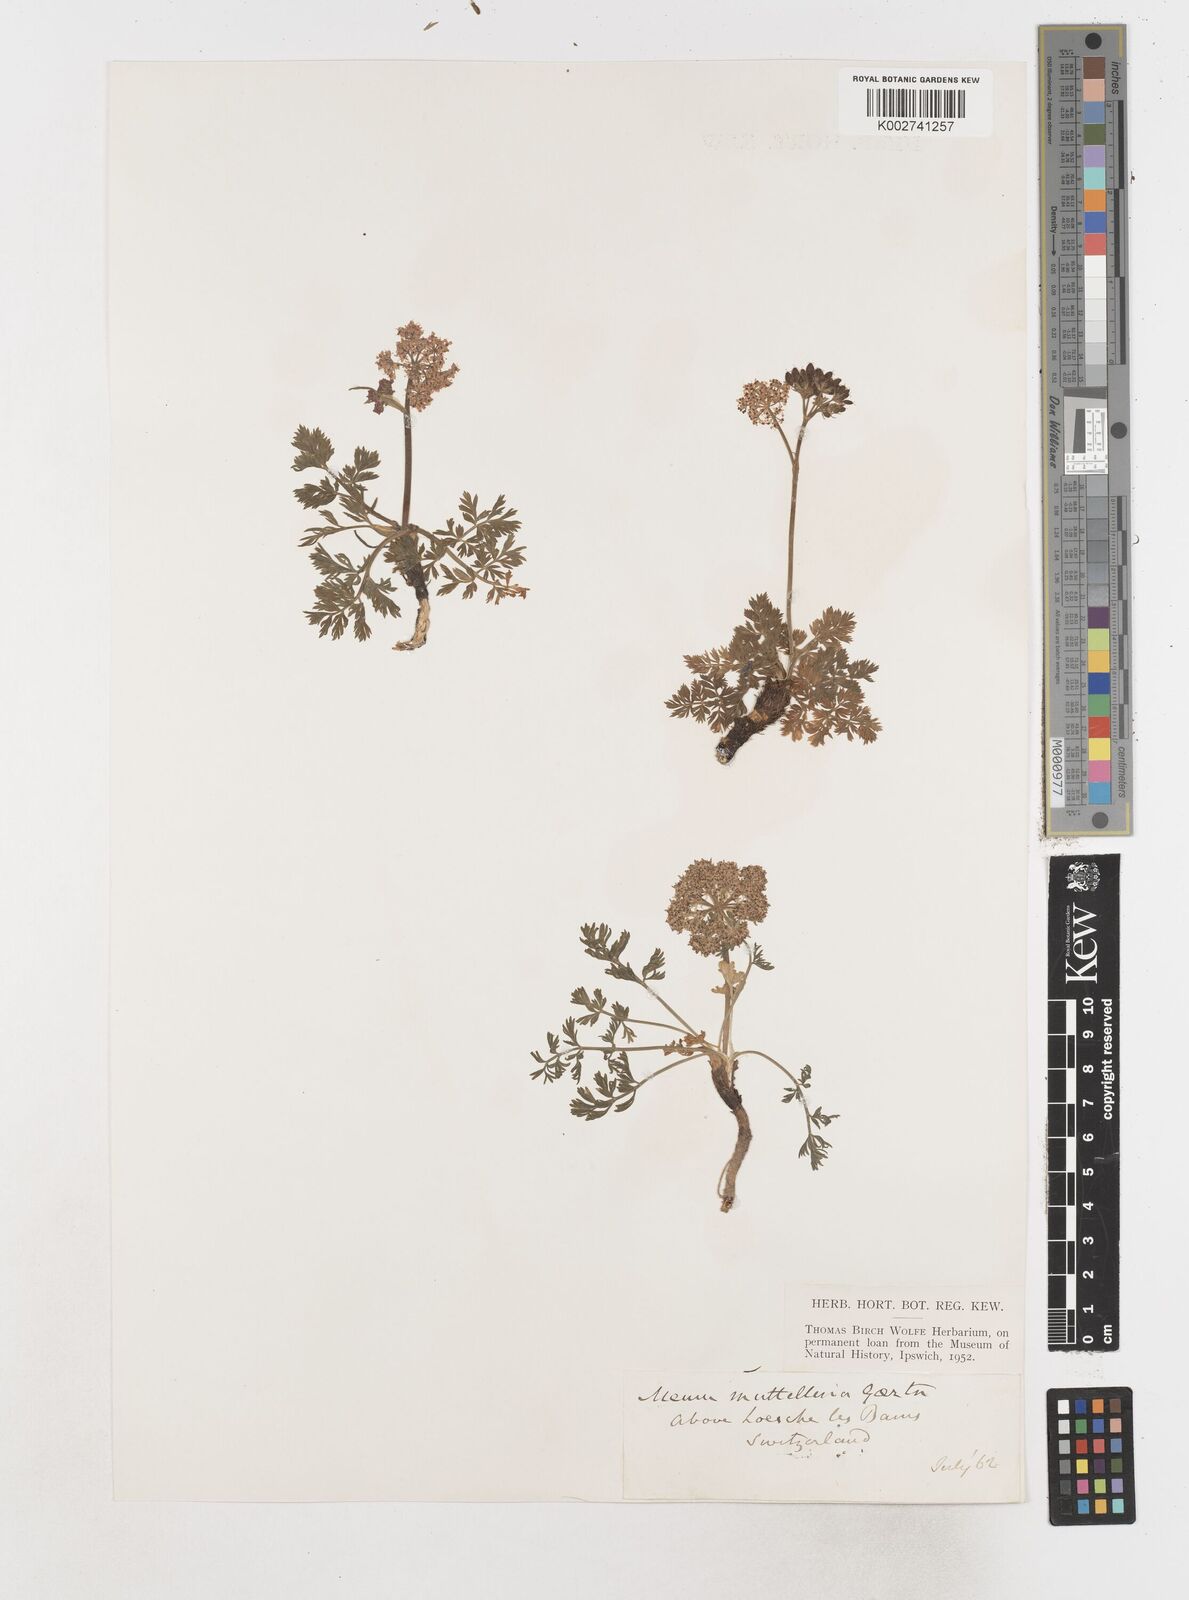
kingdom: Plantae
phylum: Tracheophyta
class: Magnoliopsida
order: Apiales
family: Apiaceae
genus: Mutellina
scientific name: Mutellina adonidifolia
